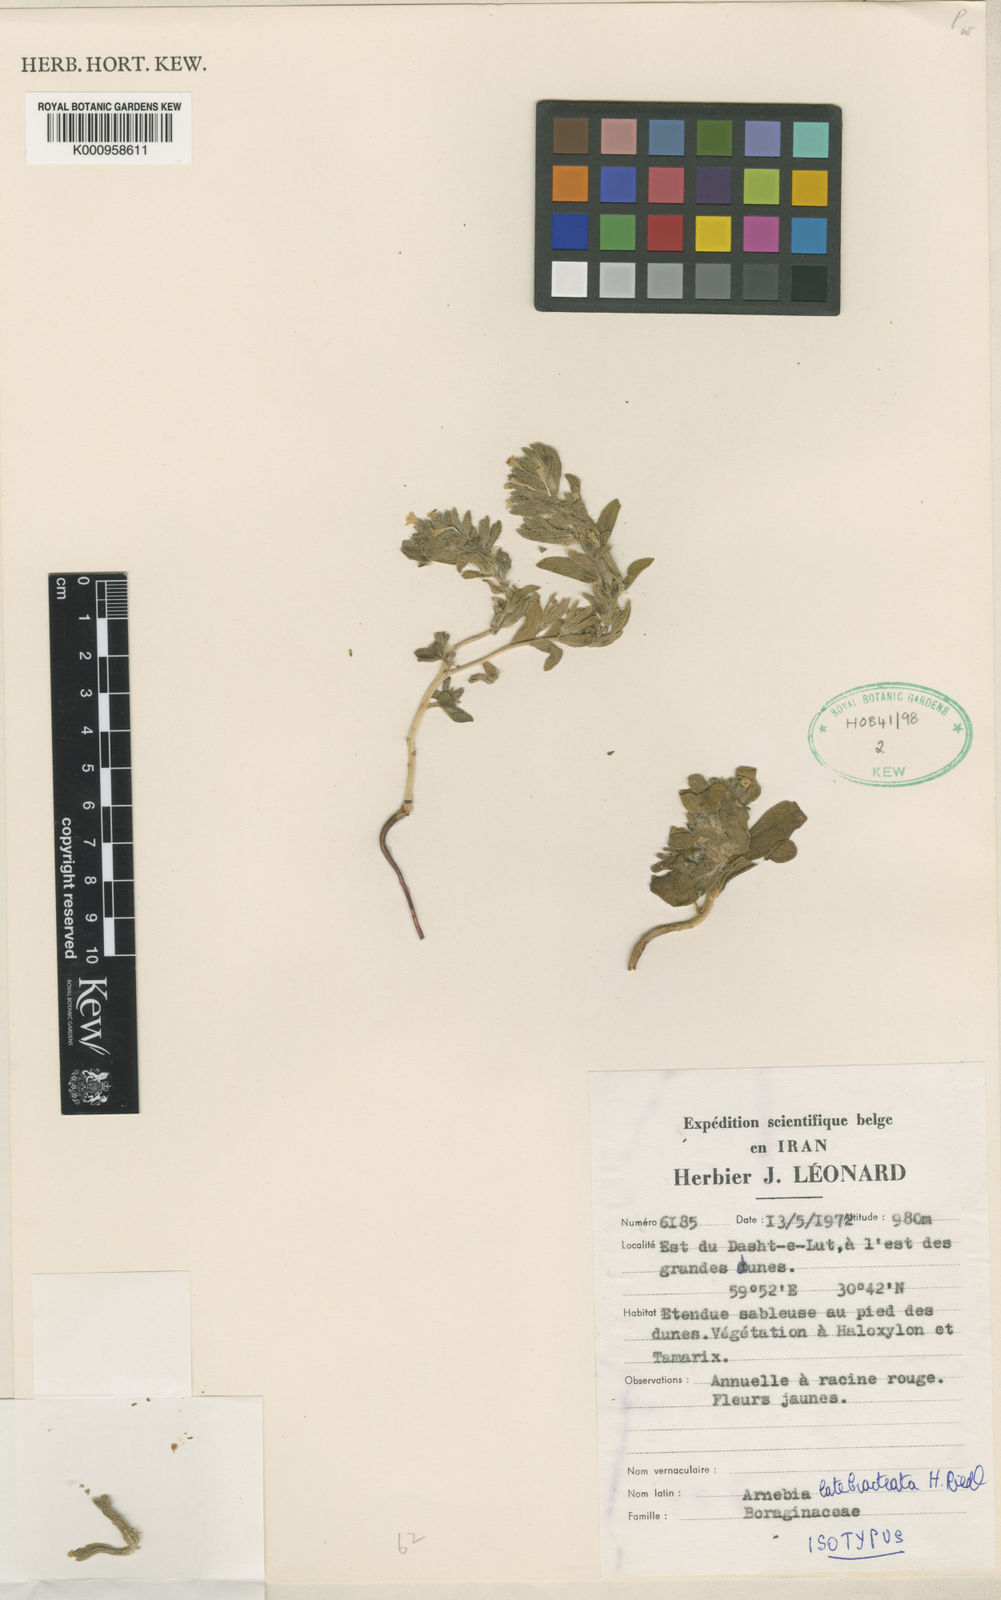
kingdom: Plantae
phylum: Tracheophyta
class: Magnoliopsida
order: Boraginales
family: Boraginaceae
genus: Arnebia
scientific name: Arnebia
